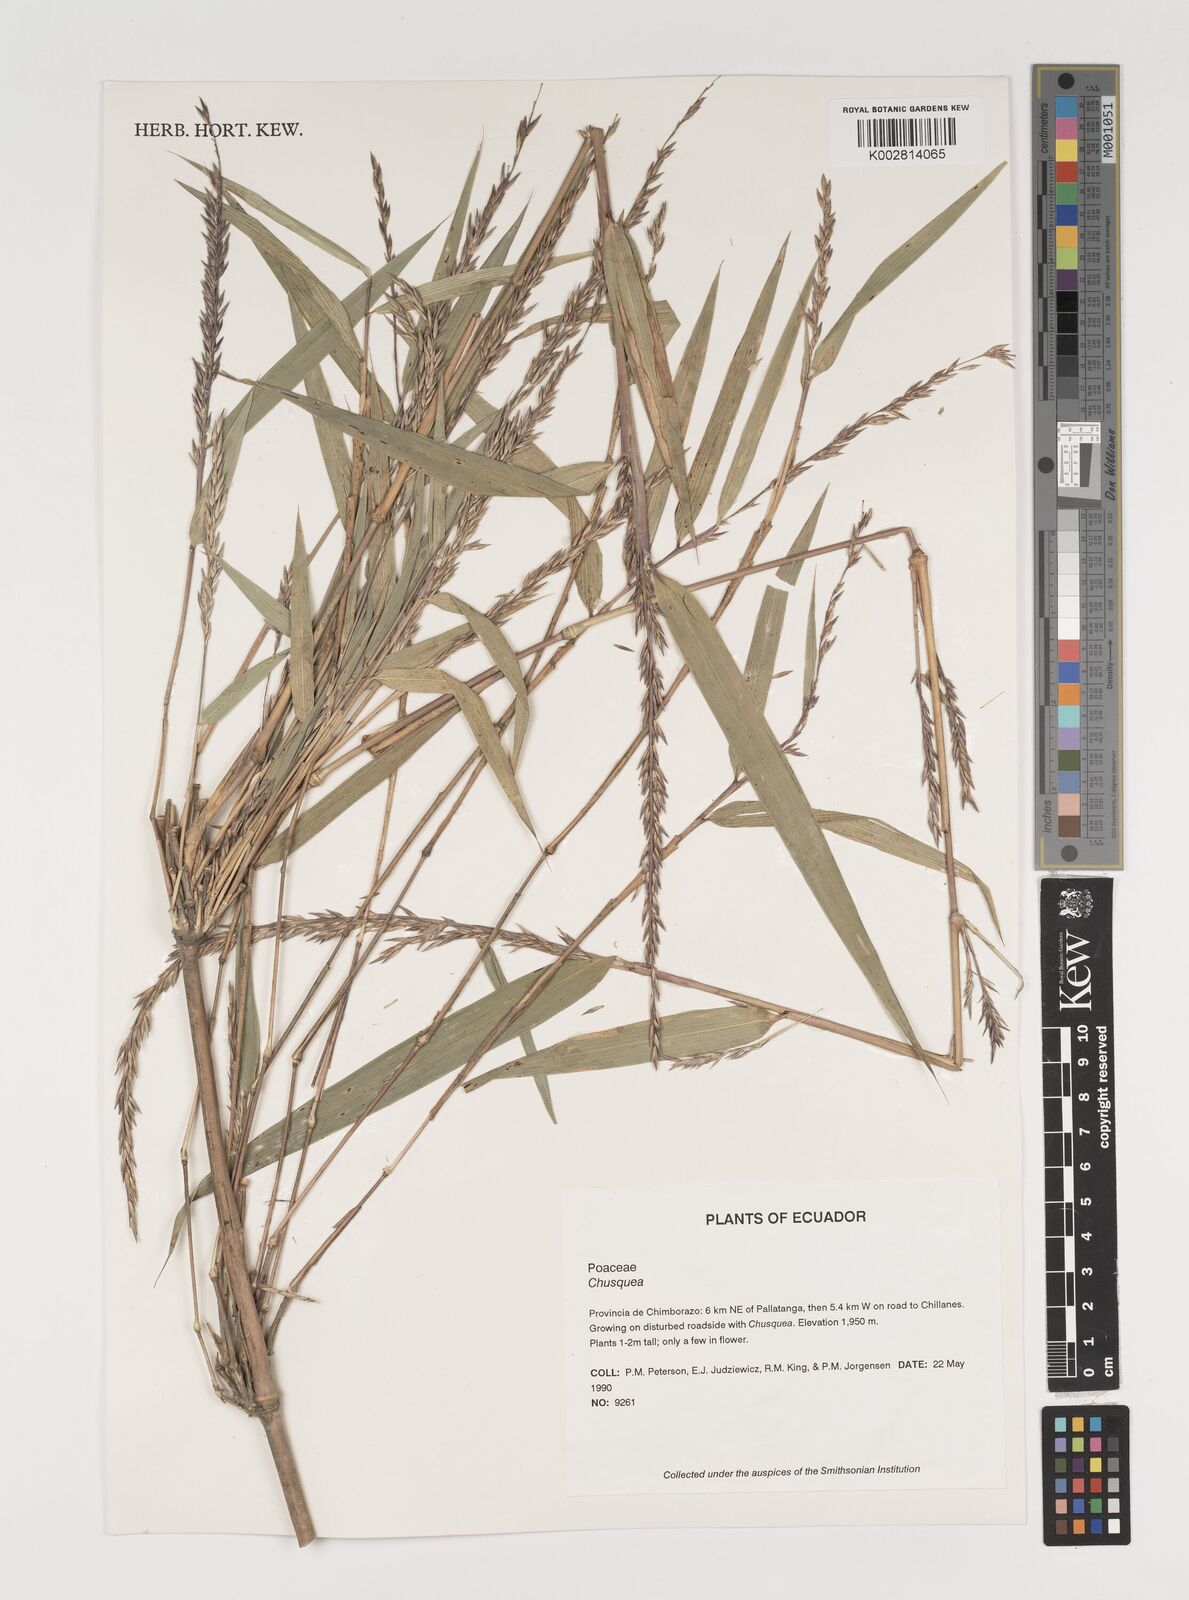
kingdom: Plantae
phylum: Tracheophyta
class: Liliopsida
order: Poales
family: Poaceae
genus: Chusquea
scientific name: Chusquea
